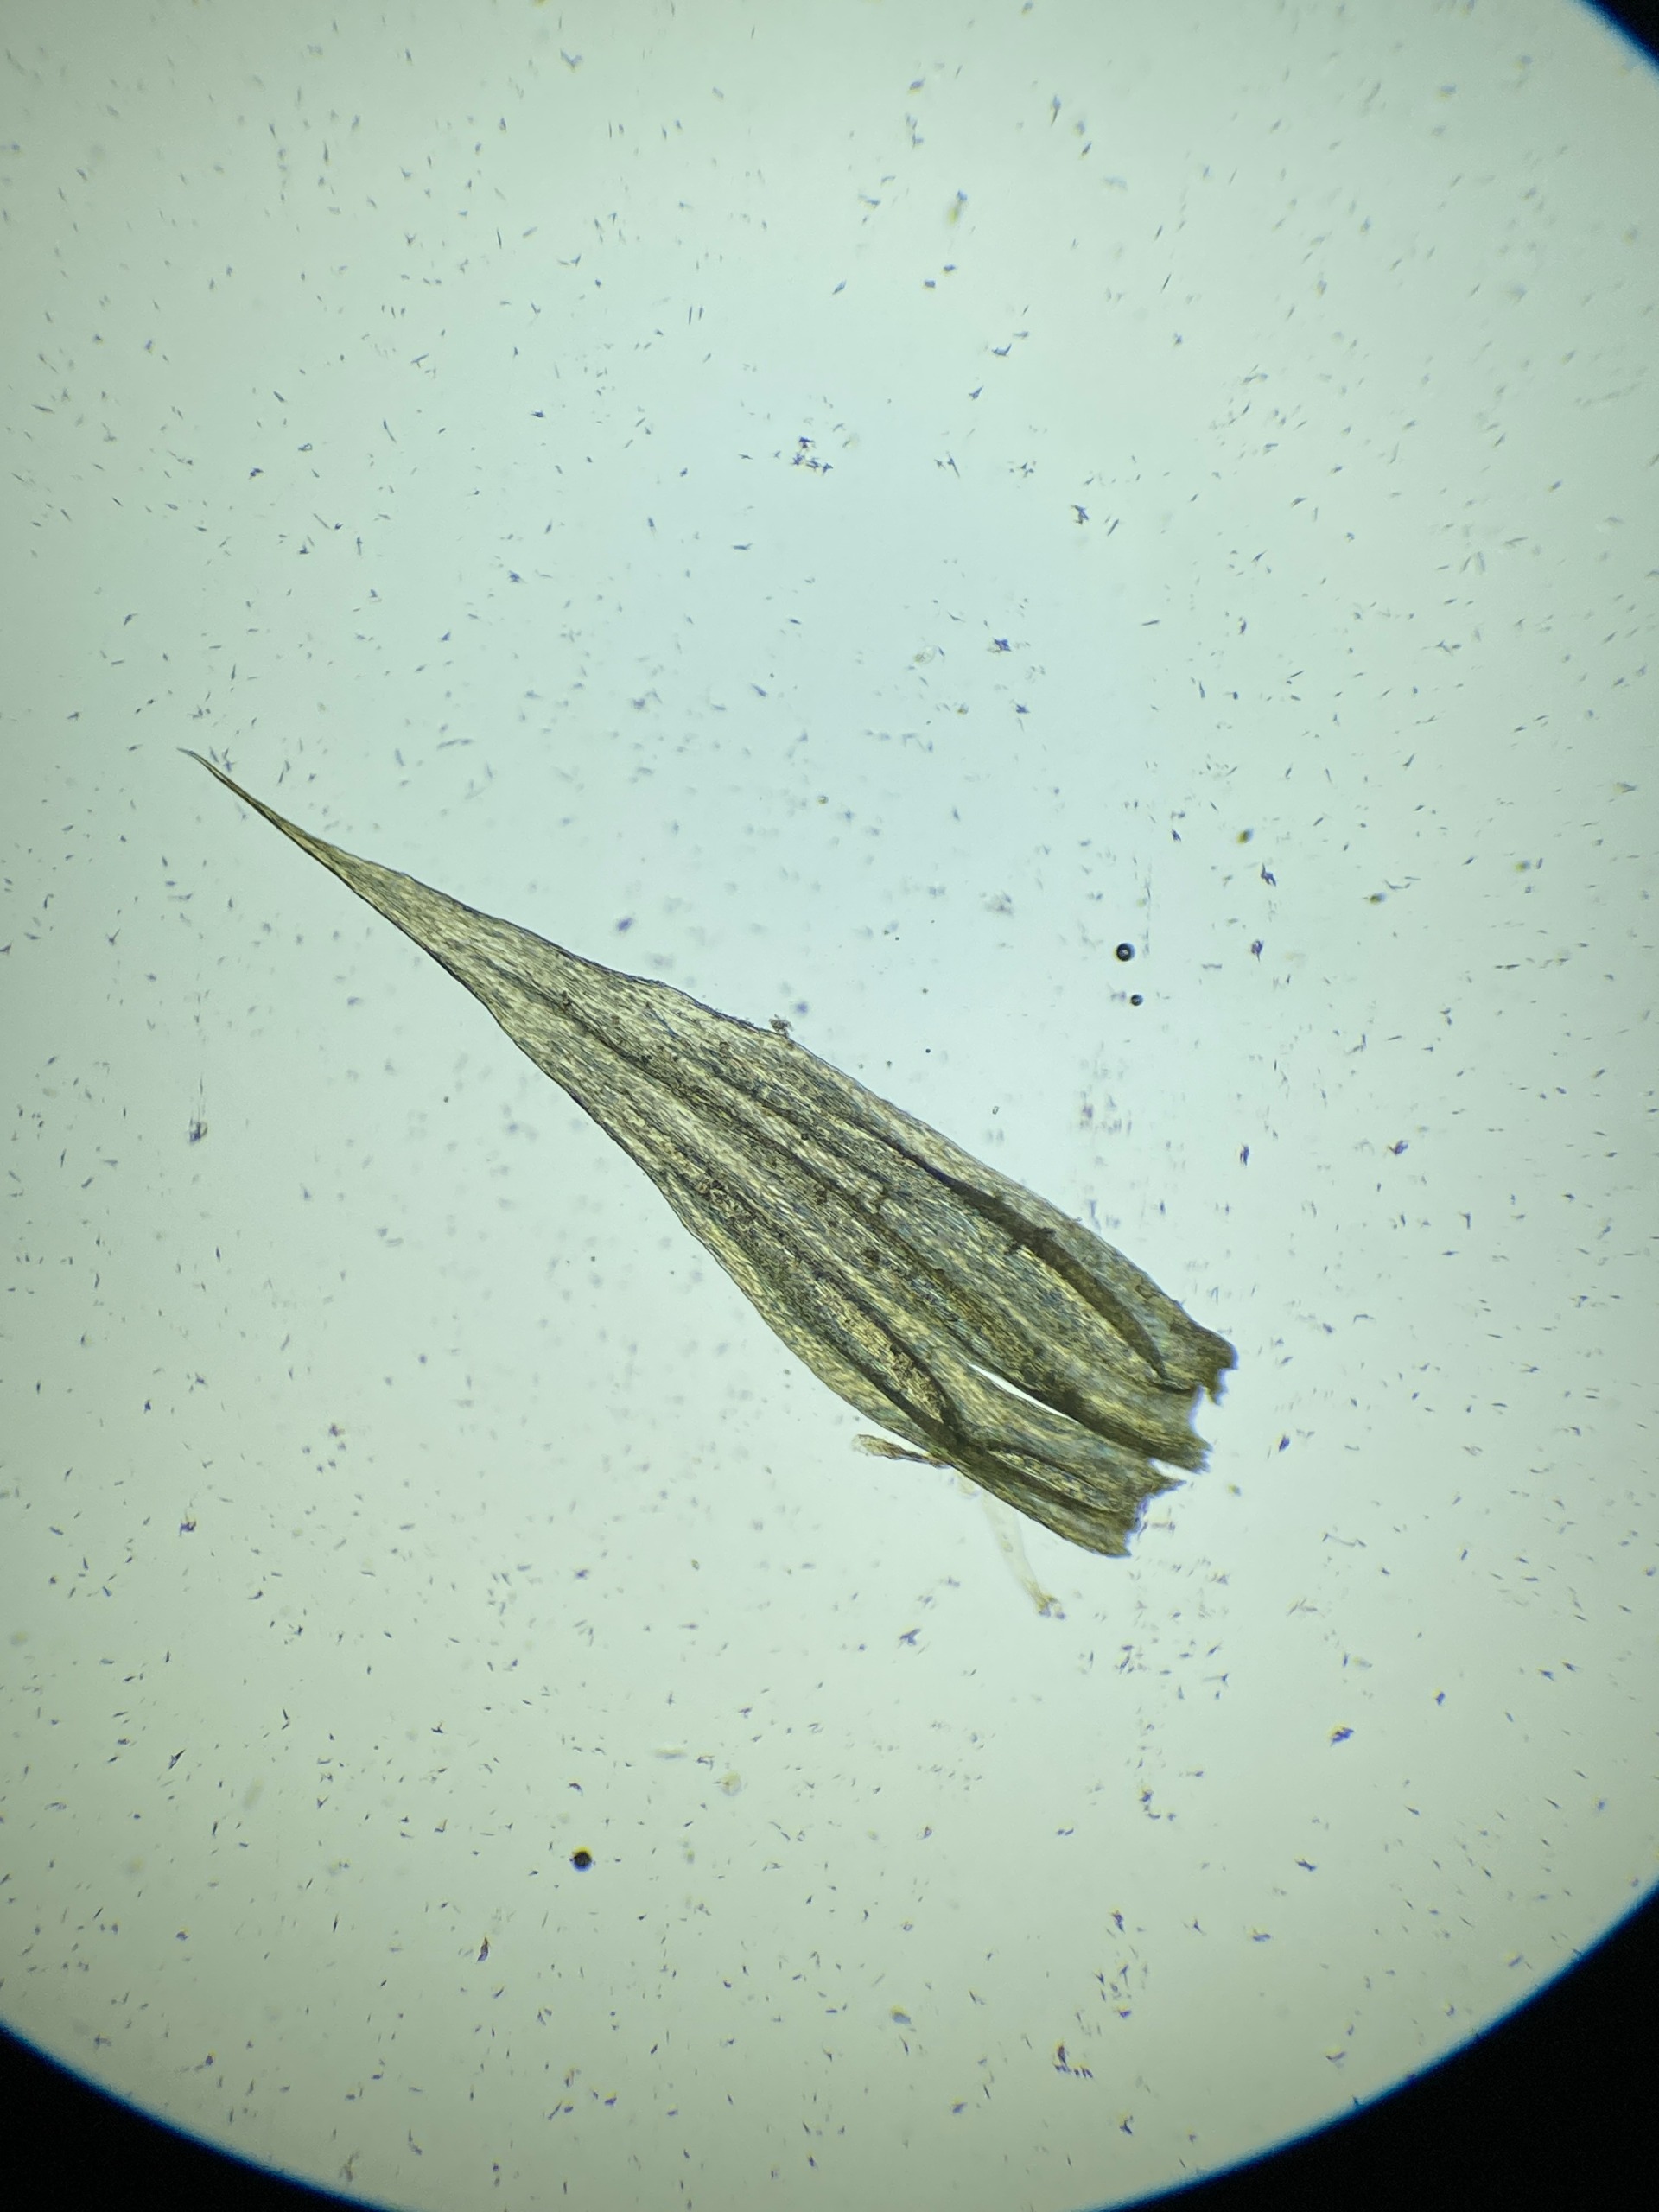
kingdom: Plantae
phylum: Bryophyta
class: Bryopsida
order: Hypnales
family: Brachytheciaceae
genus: Homalothecium
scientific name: Homalothecium lutescens
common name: Gul krumkapsel
